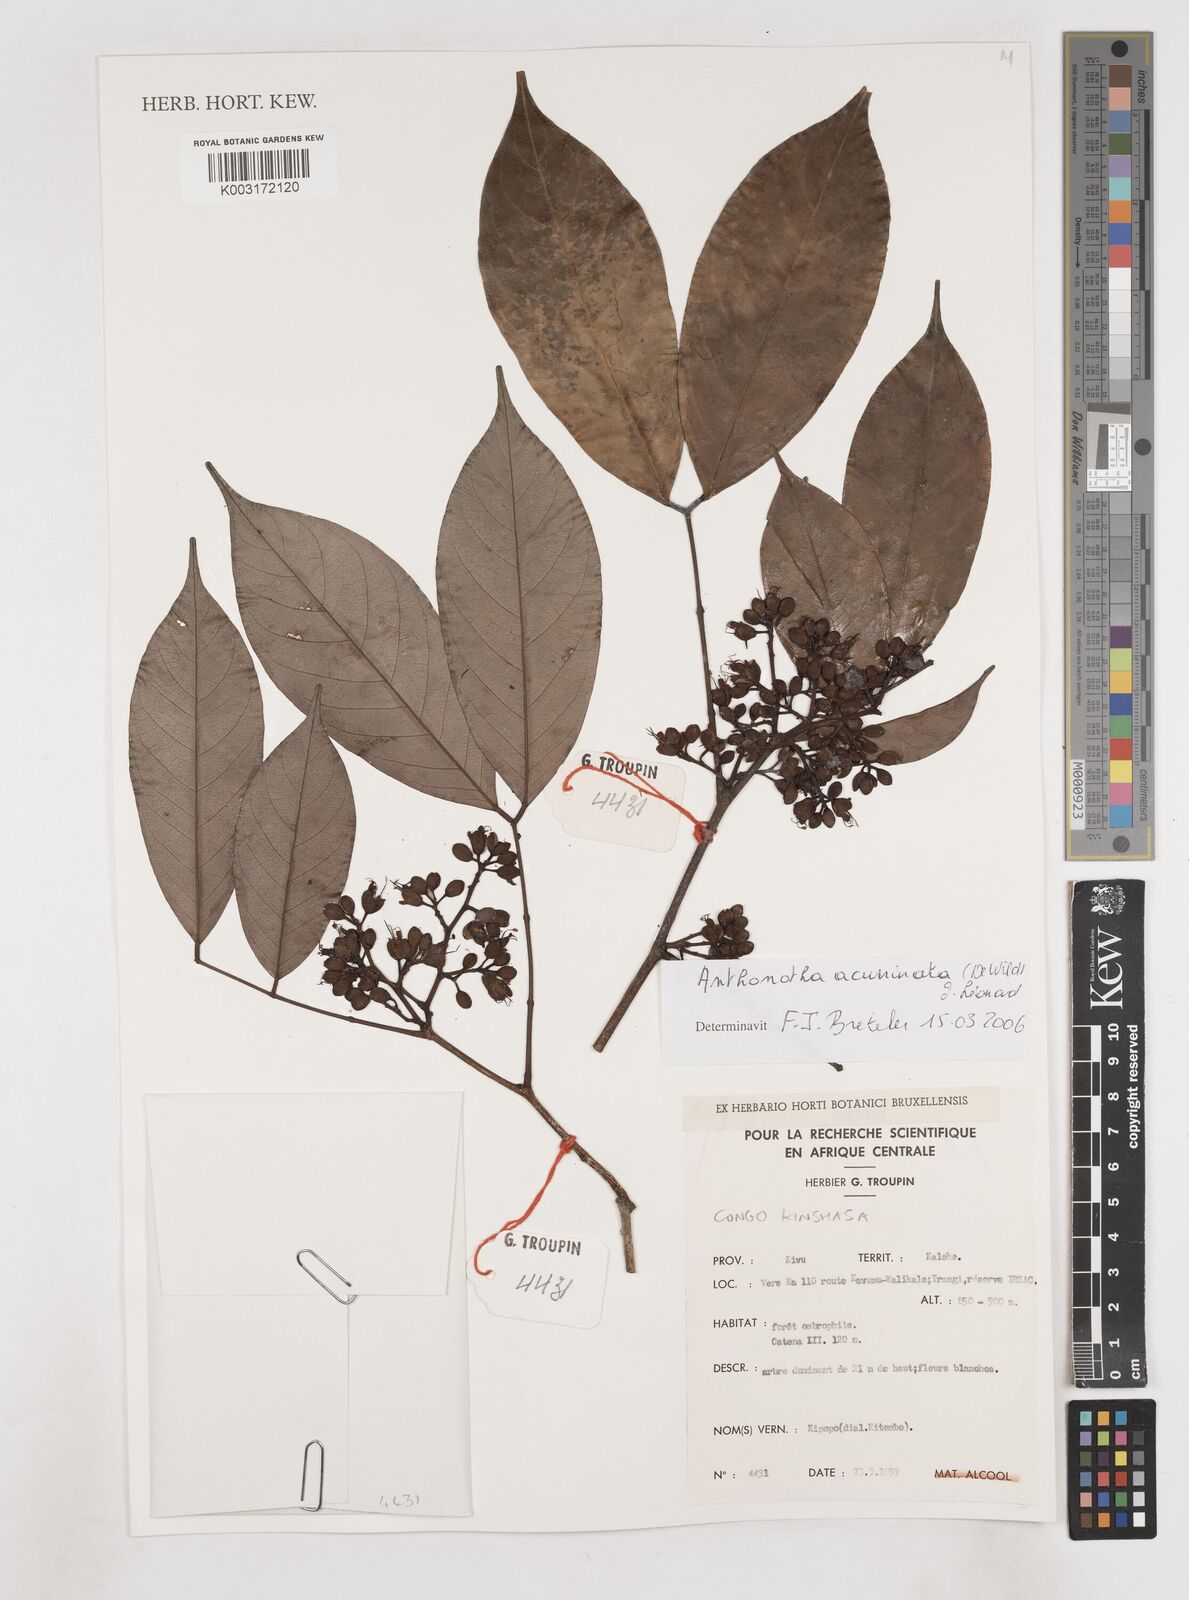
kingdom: Plantae
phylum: Tracheophyta
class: Magnoliopsida
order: Fabales
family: Fabaceae
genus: Anthonotha
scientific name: Anthonotha acuminata
